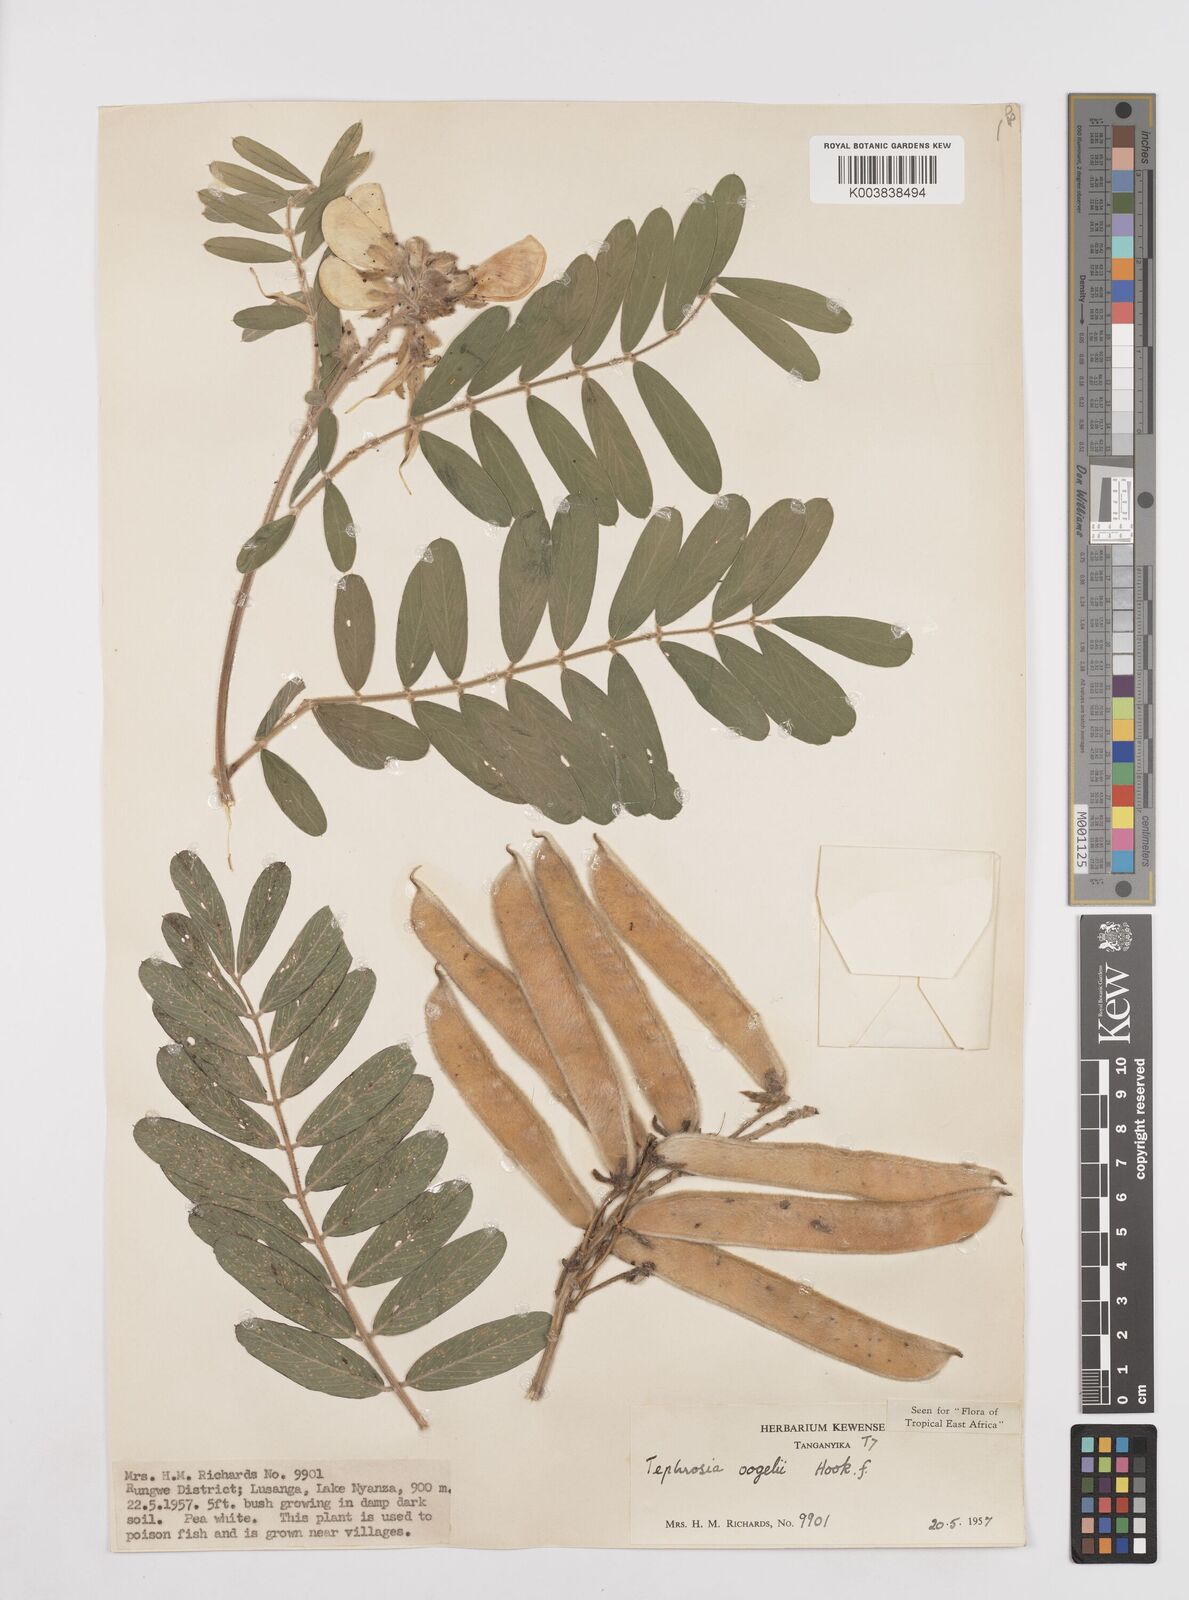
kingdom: Plantae
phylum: Tracheophyta
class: Magnoliopsida
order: Fabales
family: Fabaceae
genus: Tephrosia
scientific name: Tephrosia vogelii
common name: Vogel tephrosia
